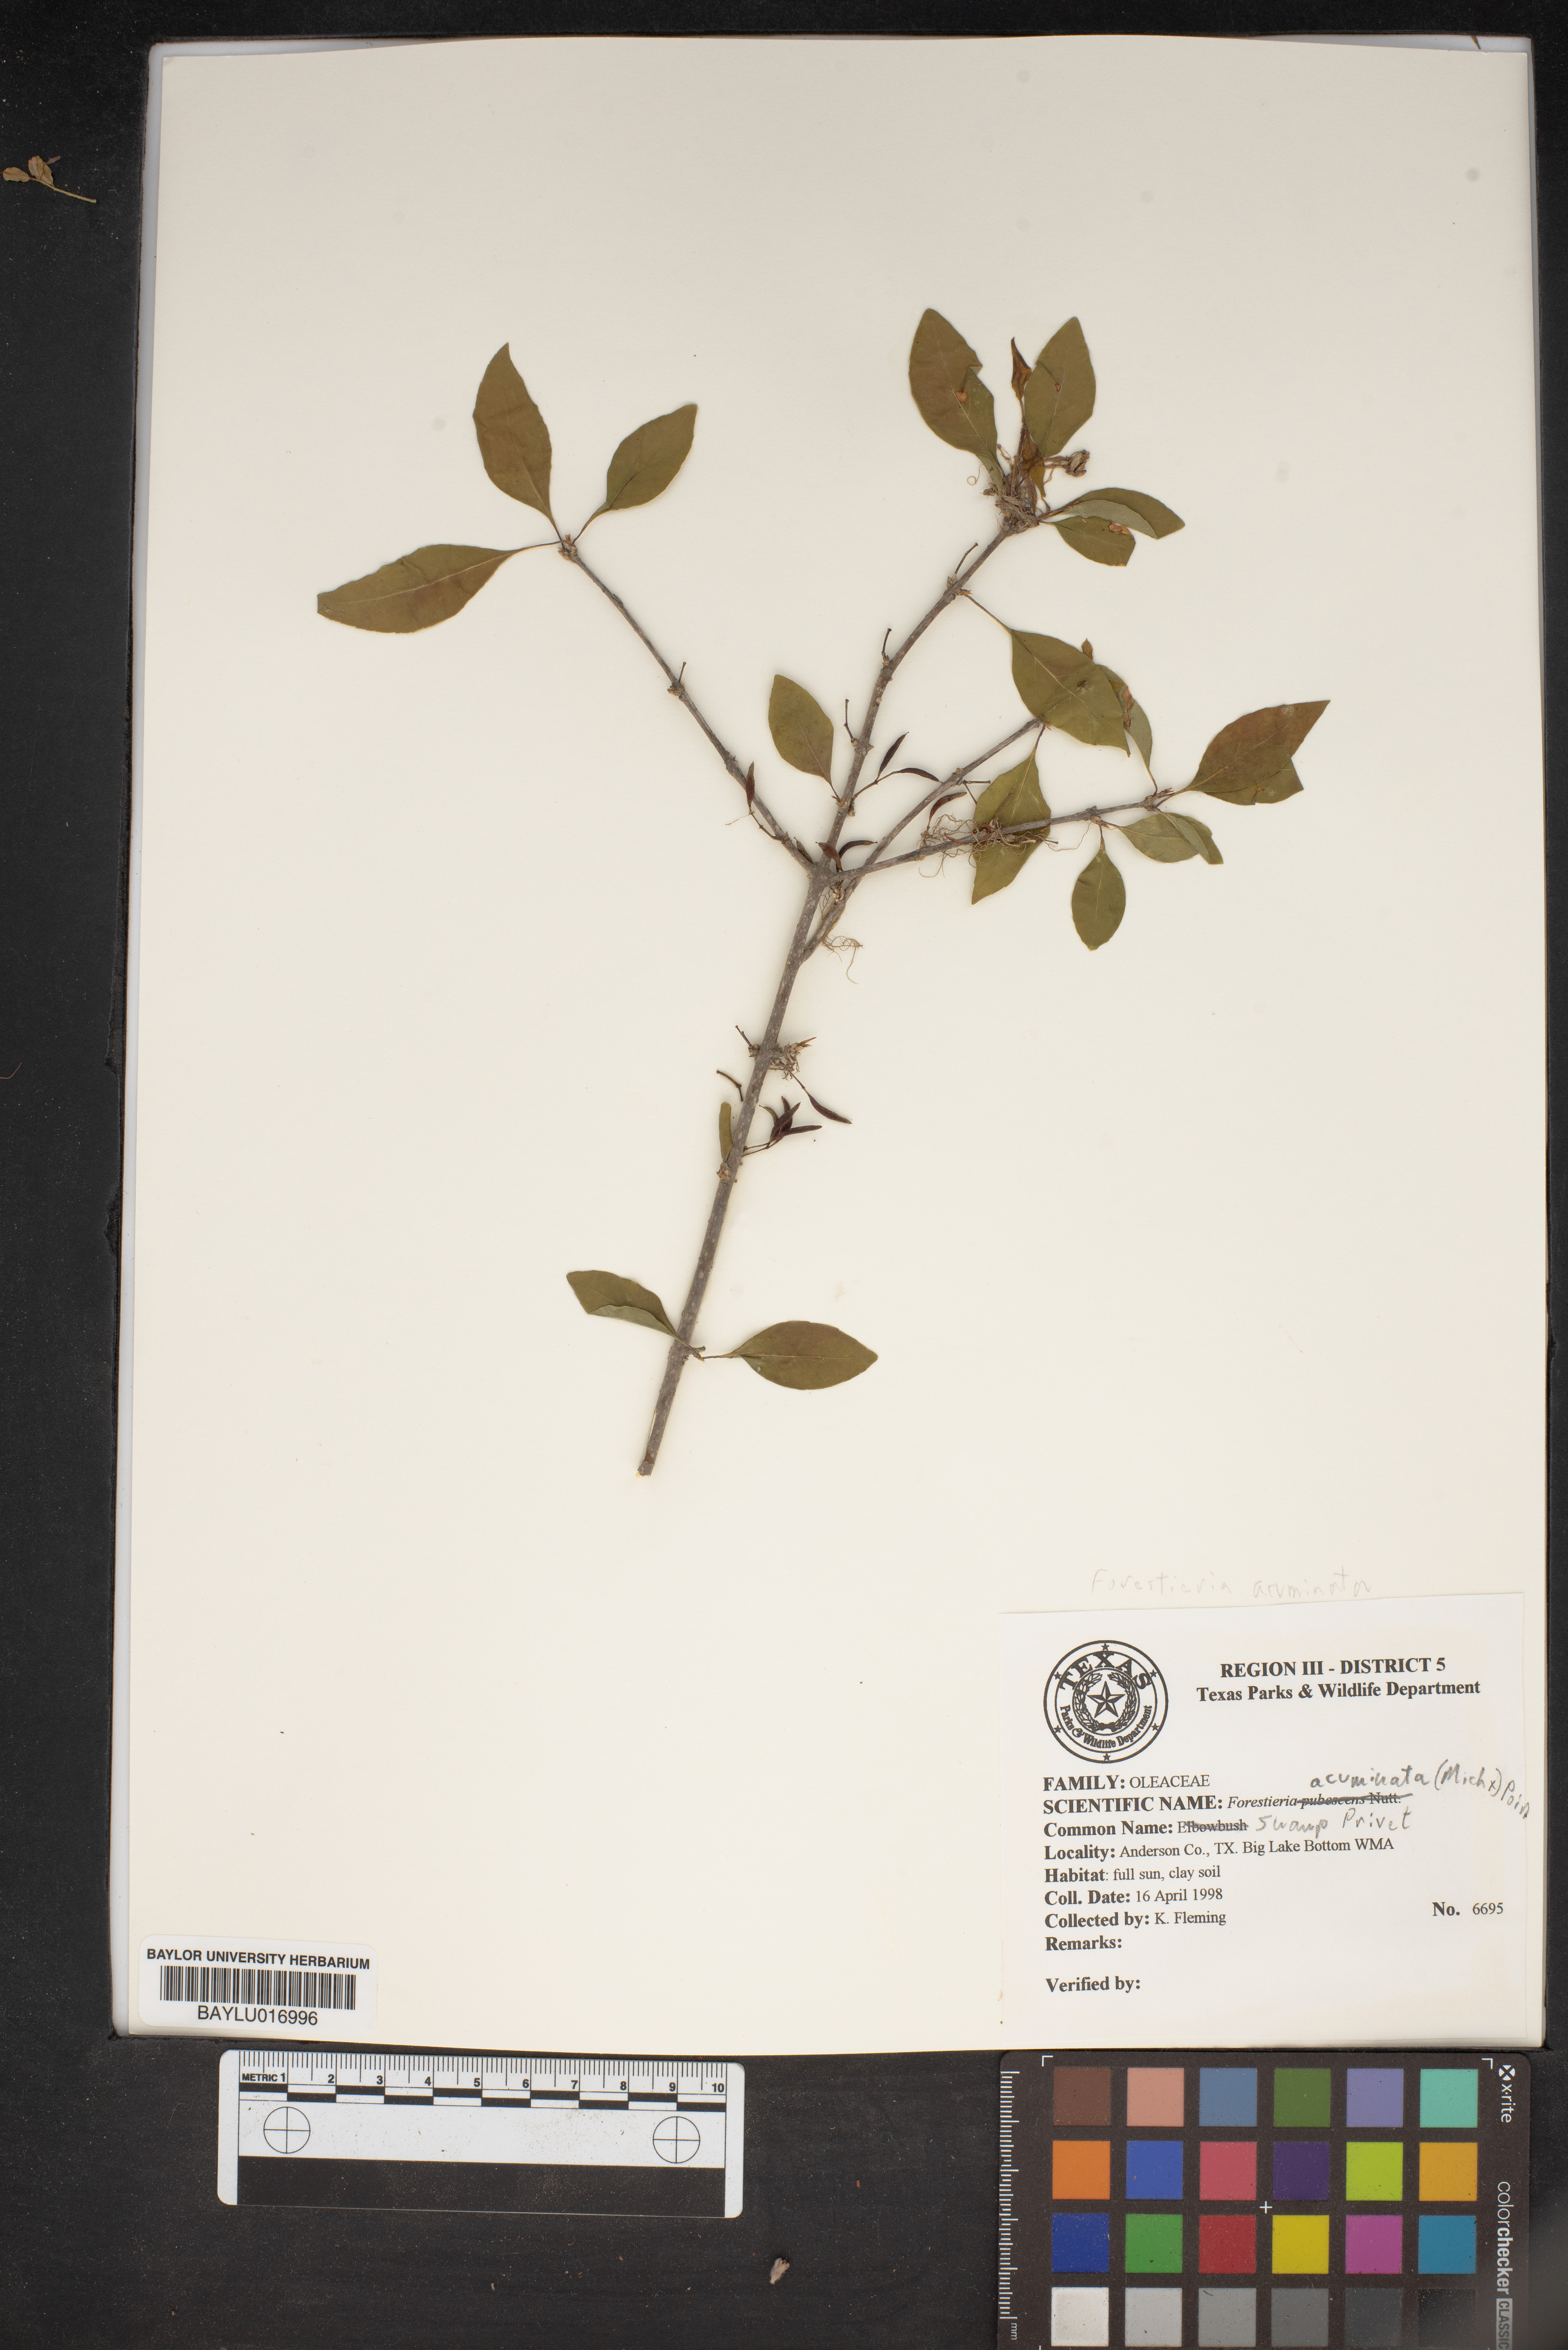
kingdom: Plantae
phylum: Tracheophyta
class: Magnoliopsida
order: Lamiales
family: Oleaceae
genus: Forestiera
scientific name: Forestiera acuminata
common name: Swamp-privet
